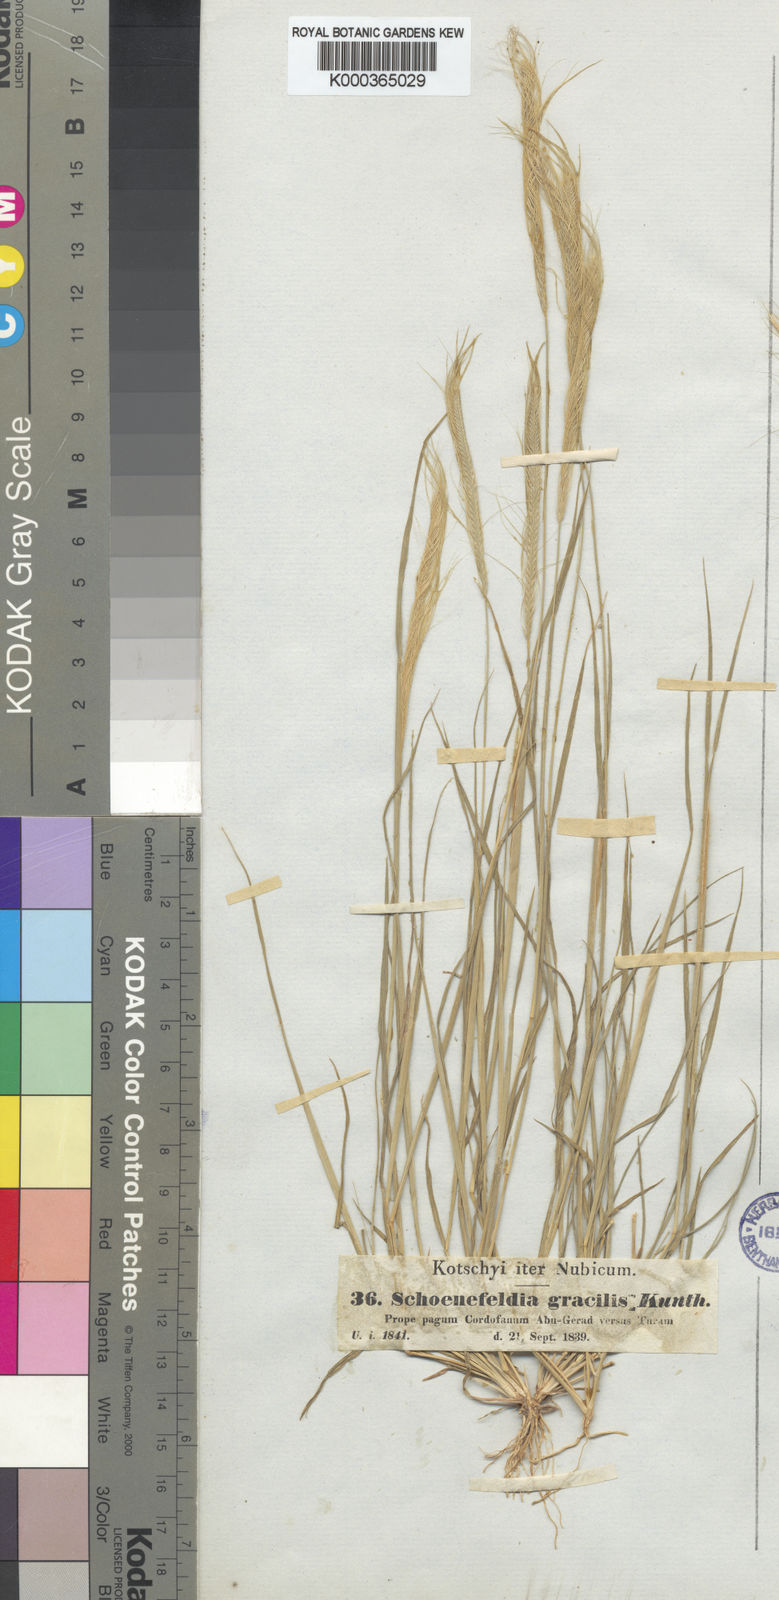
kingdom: Plantae
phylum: Tracheophyta
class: Liliopsida
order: Poales
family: Poaceae
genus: Schoenefeldia
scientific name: Schoenefeldia gracilis
